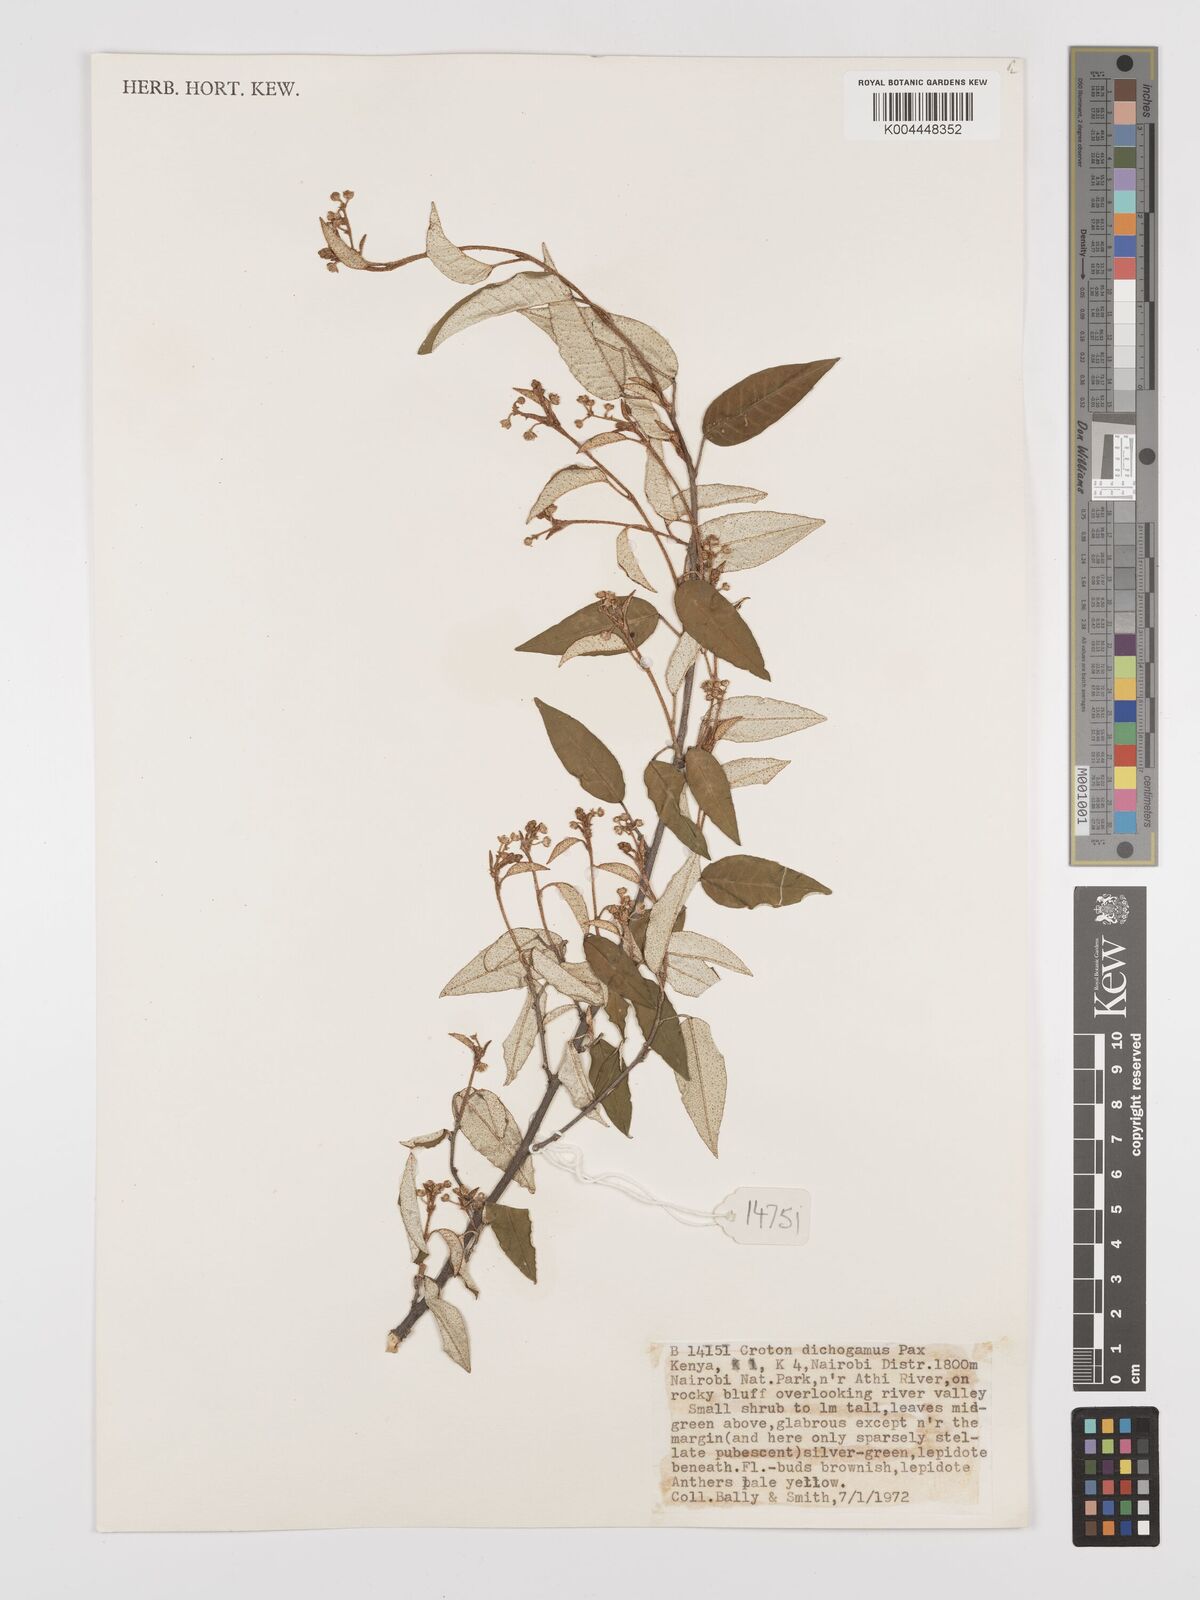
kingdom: Plantae
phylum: Tracheophyta
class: Magnoliopsida
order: Malpighiales
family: Euphorbiaceae
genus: Croton
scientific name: Croton dichogamus
